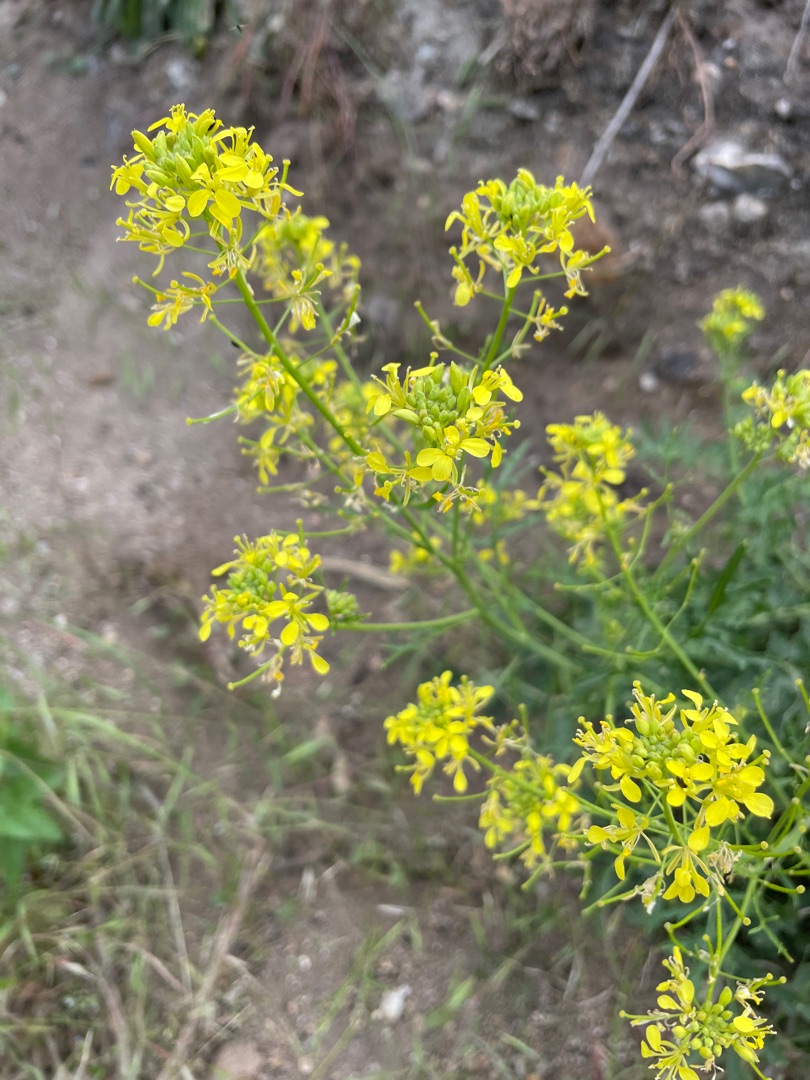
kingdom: Plantae
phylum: Tracheophyta
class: Magnoliopsida
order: Brassicales
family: Brassicaceae
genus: Erucastrum
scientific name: Erucastrum gallicum
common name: Svinesennep
